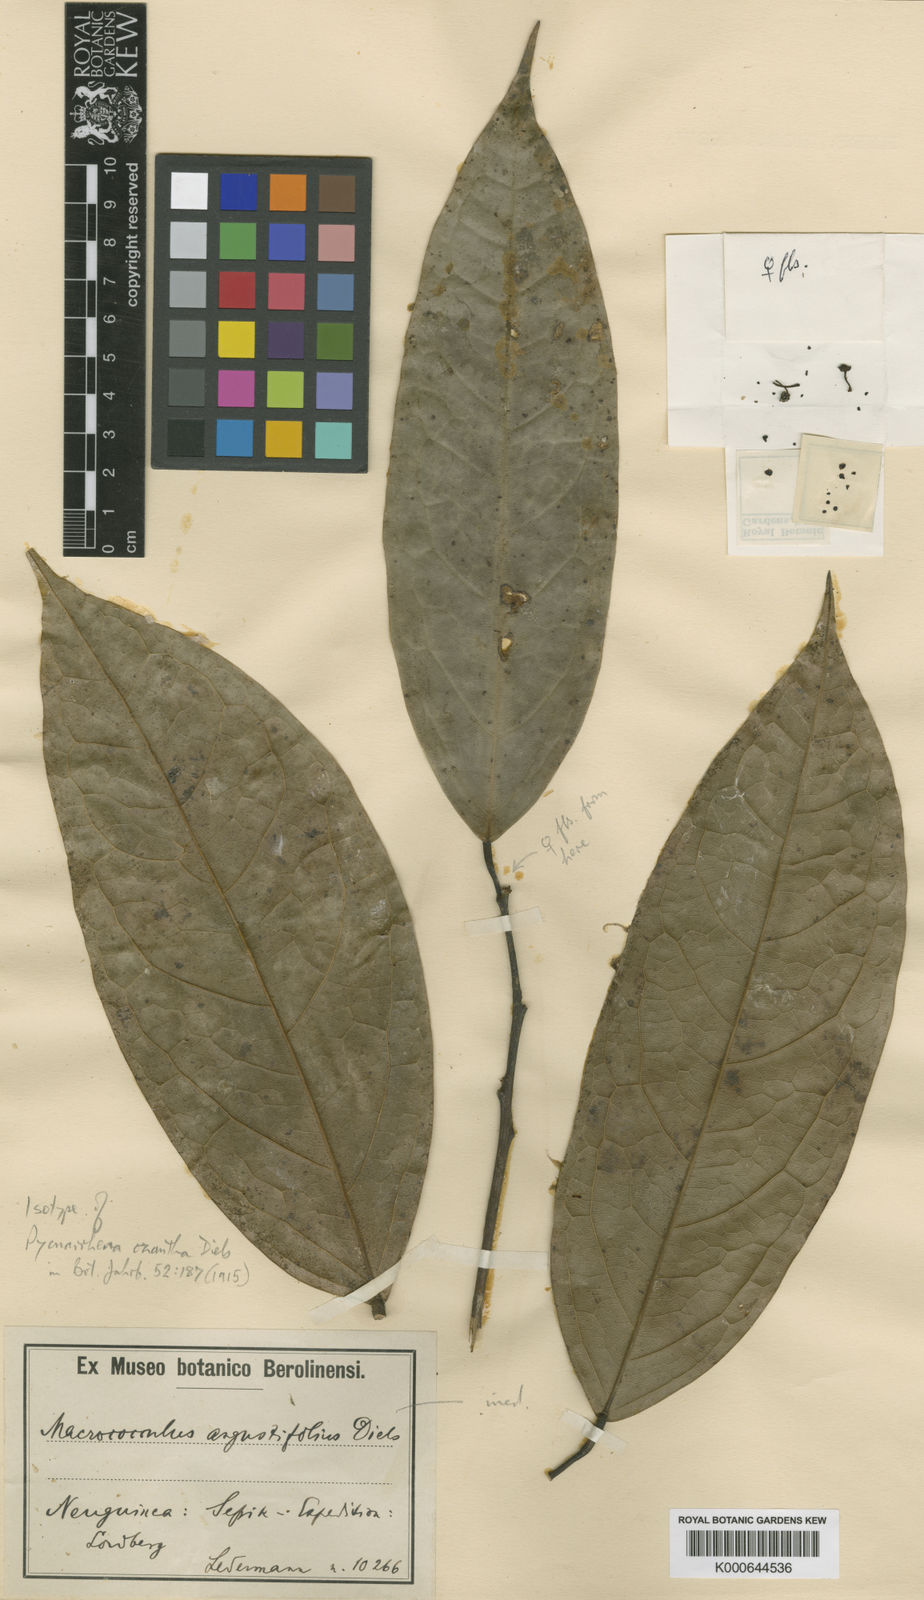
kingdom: Plantae
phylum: Tracheophyta
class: Magnoliopsida
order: Ranunculales
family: Menispermaceae
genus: Pycnarrhena
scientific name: Pycnarrhena ozantha
